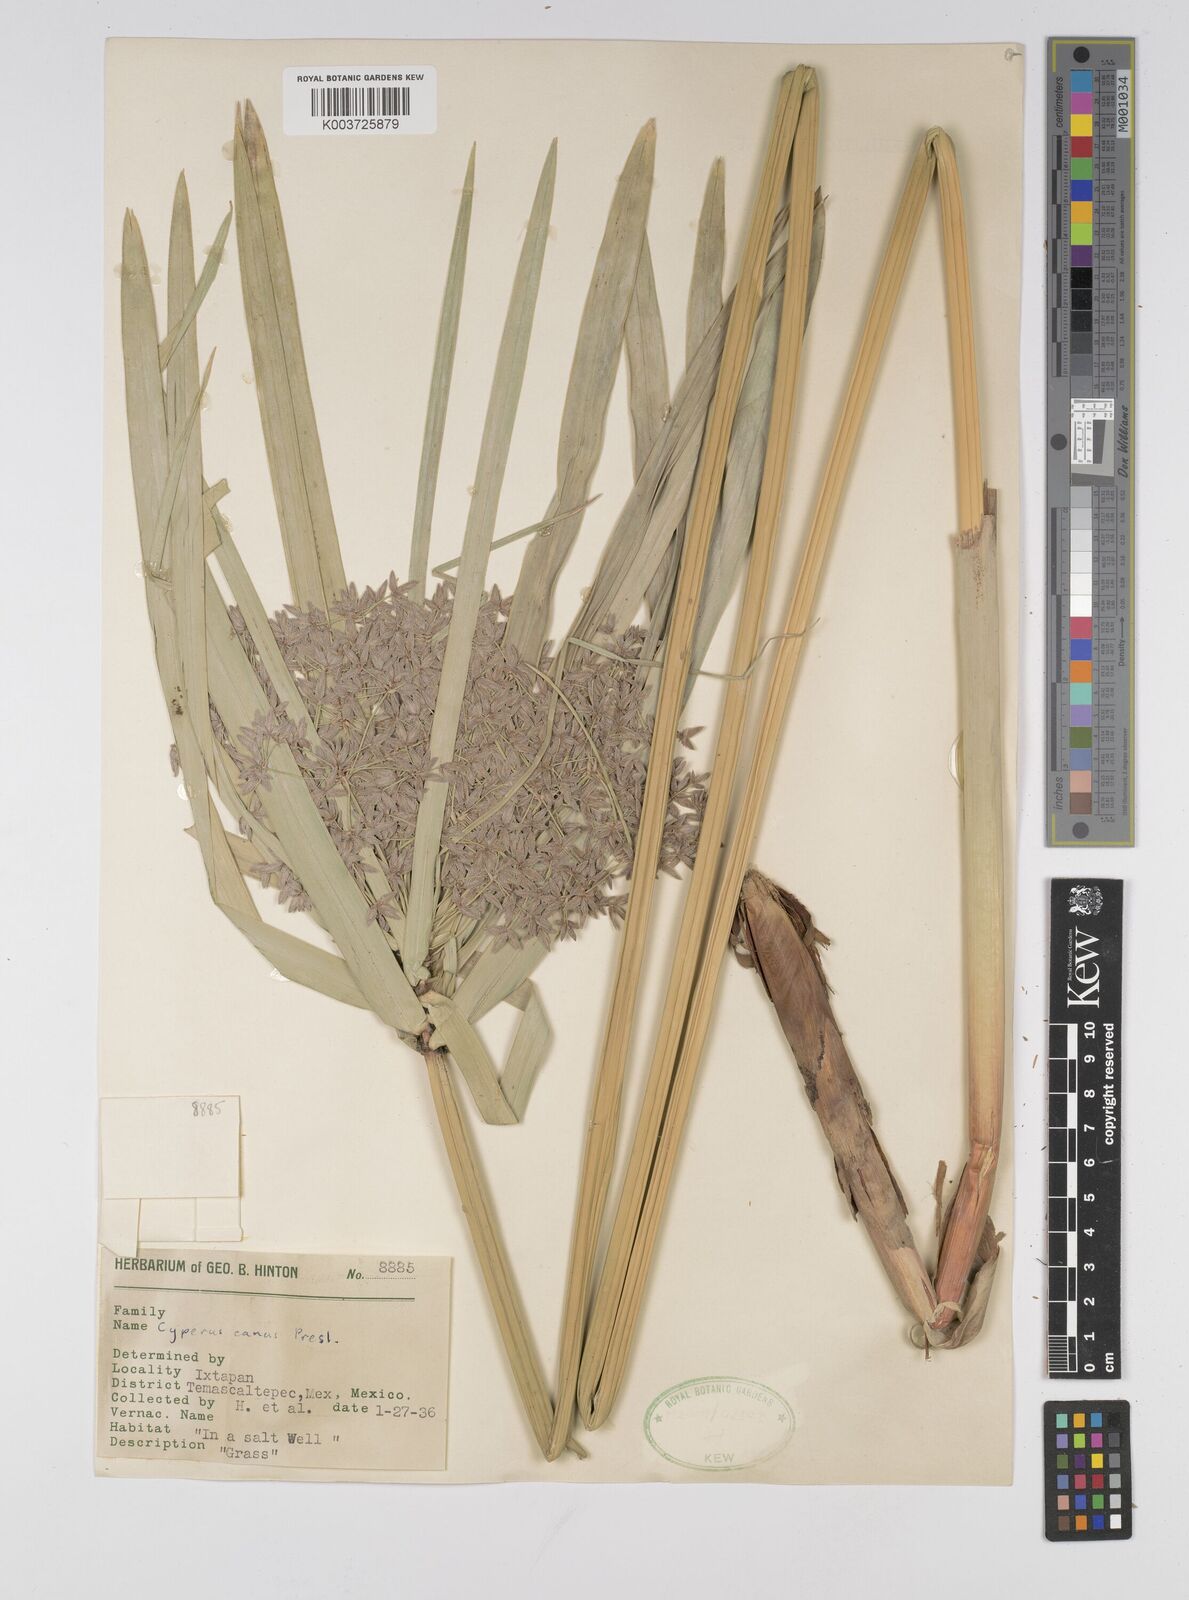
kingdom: Plantae
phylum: Tracheophyta
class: Liliopsida
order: Poales
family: Cyperaceae
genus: Cyperus
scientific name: Cyperus canus
